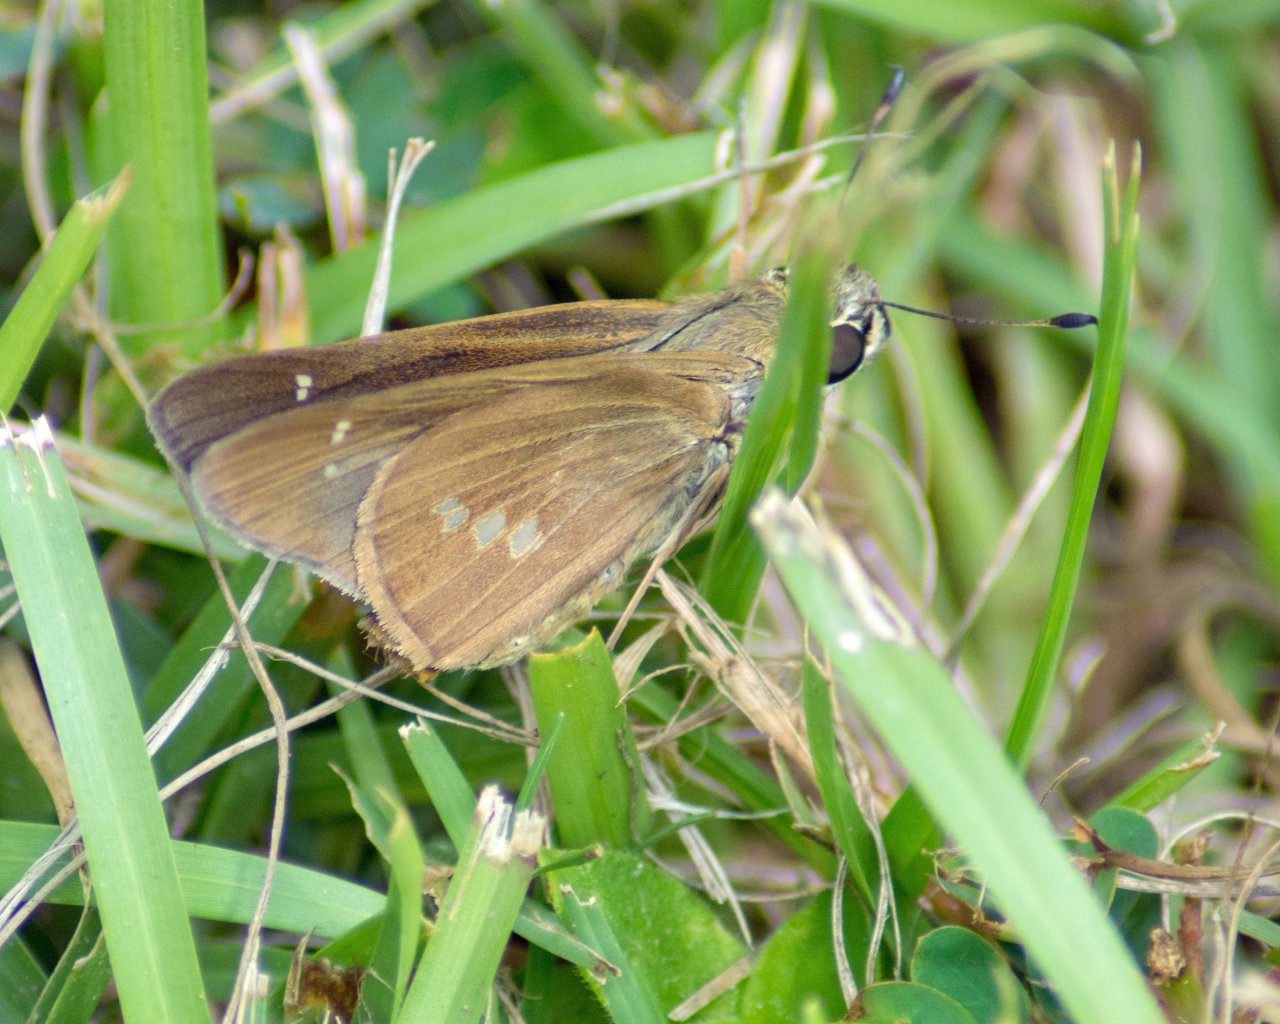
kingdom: Animalia
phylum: Arthropoda
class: Insecta
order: Lepidoptera
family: Hesperiidae
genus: Calpodes
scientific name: Calpodes ethlius
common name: Brazilian Skipper
